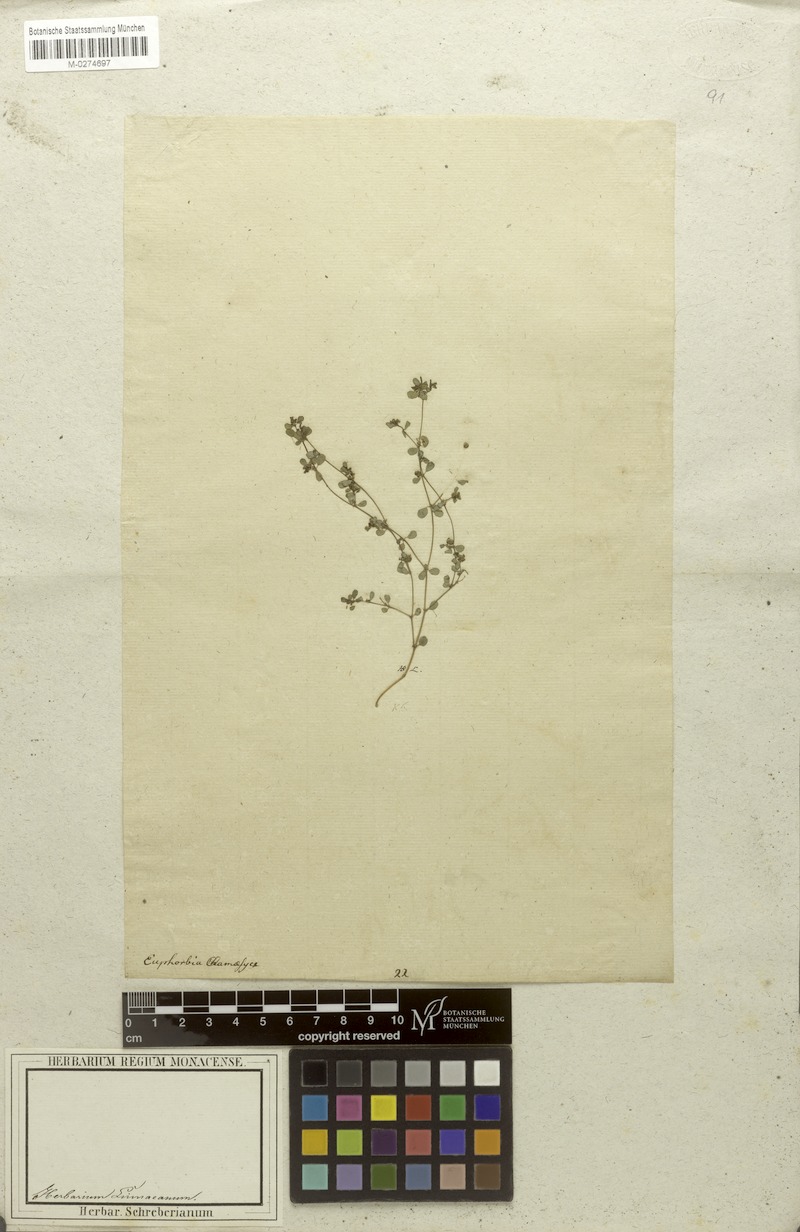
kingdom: Plantae
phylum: Tracheophyta
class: Magnoliopsida
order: Malpighiales
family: Euphorbiaceae
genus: Euphorbia
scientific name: Euphorbia chamaesyce
